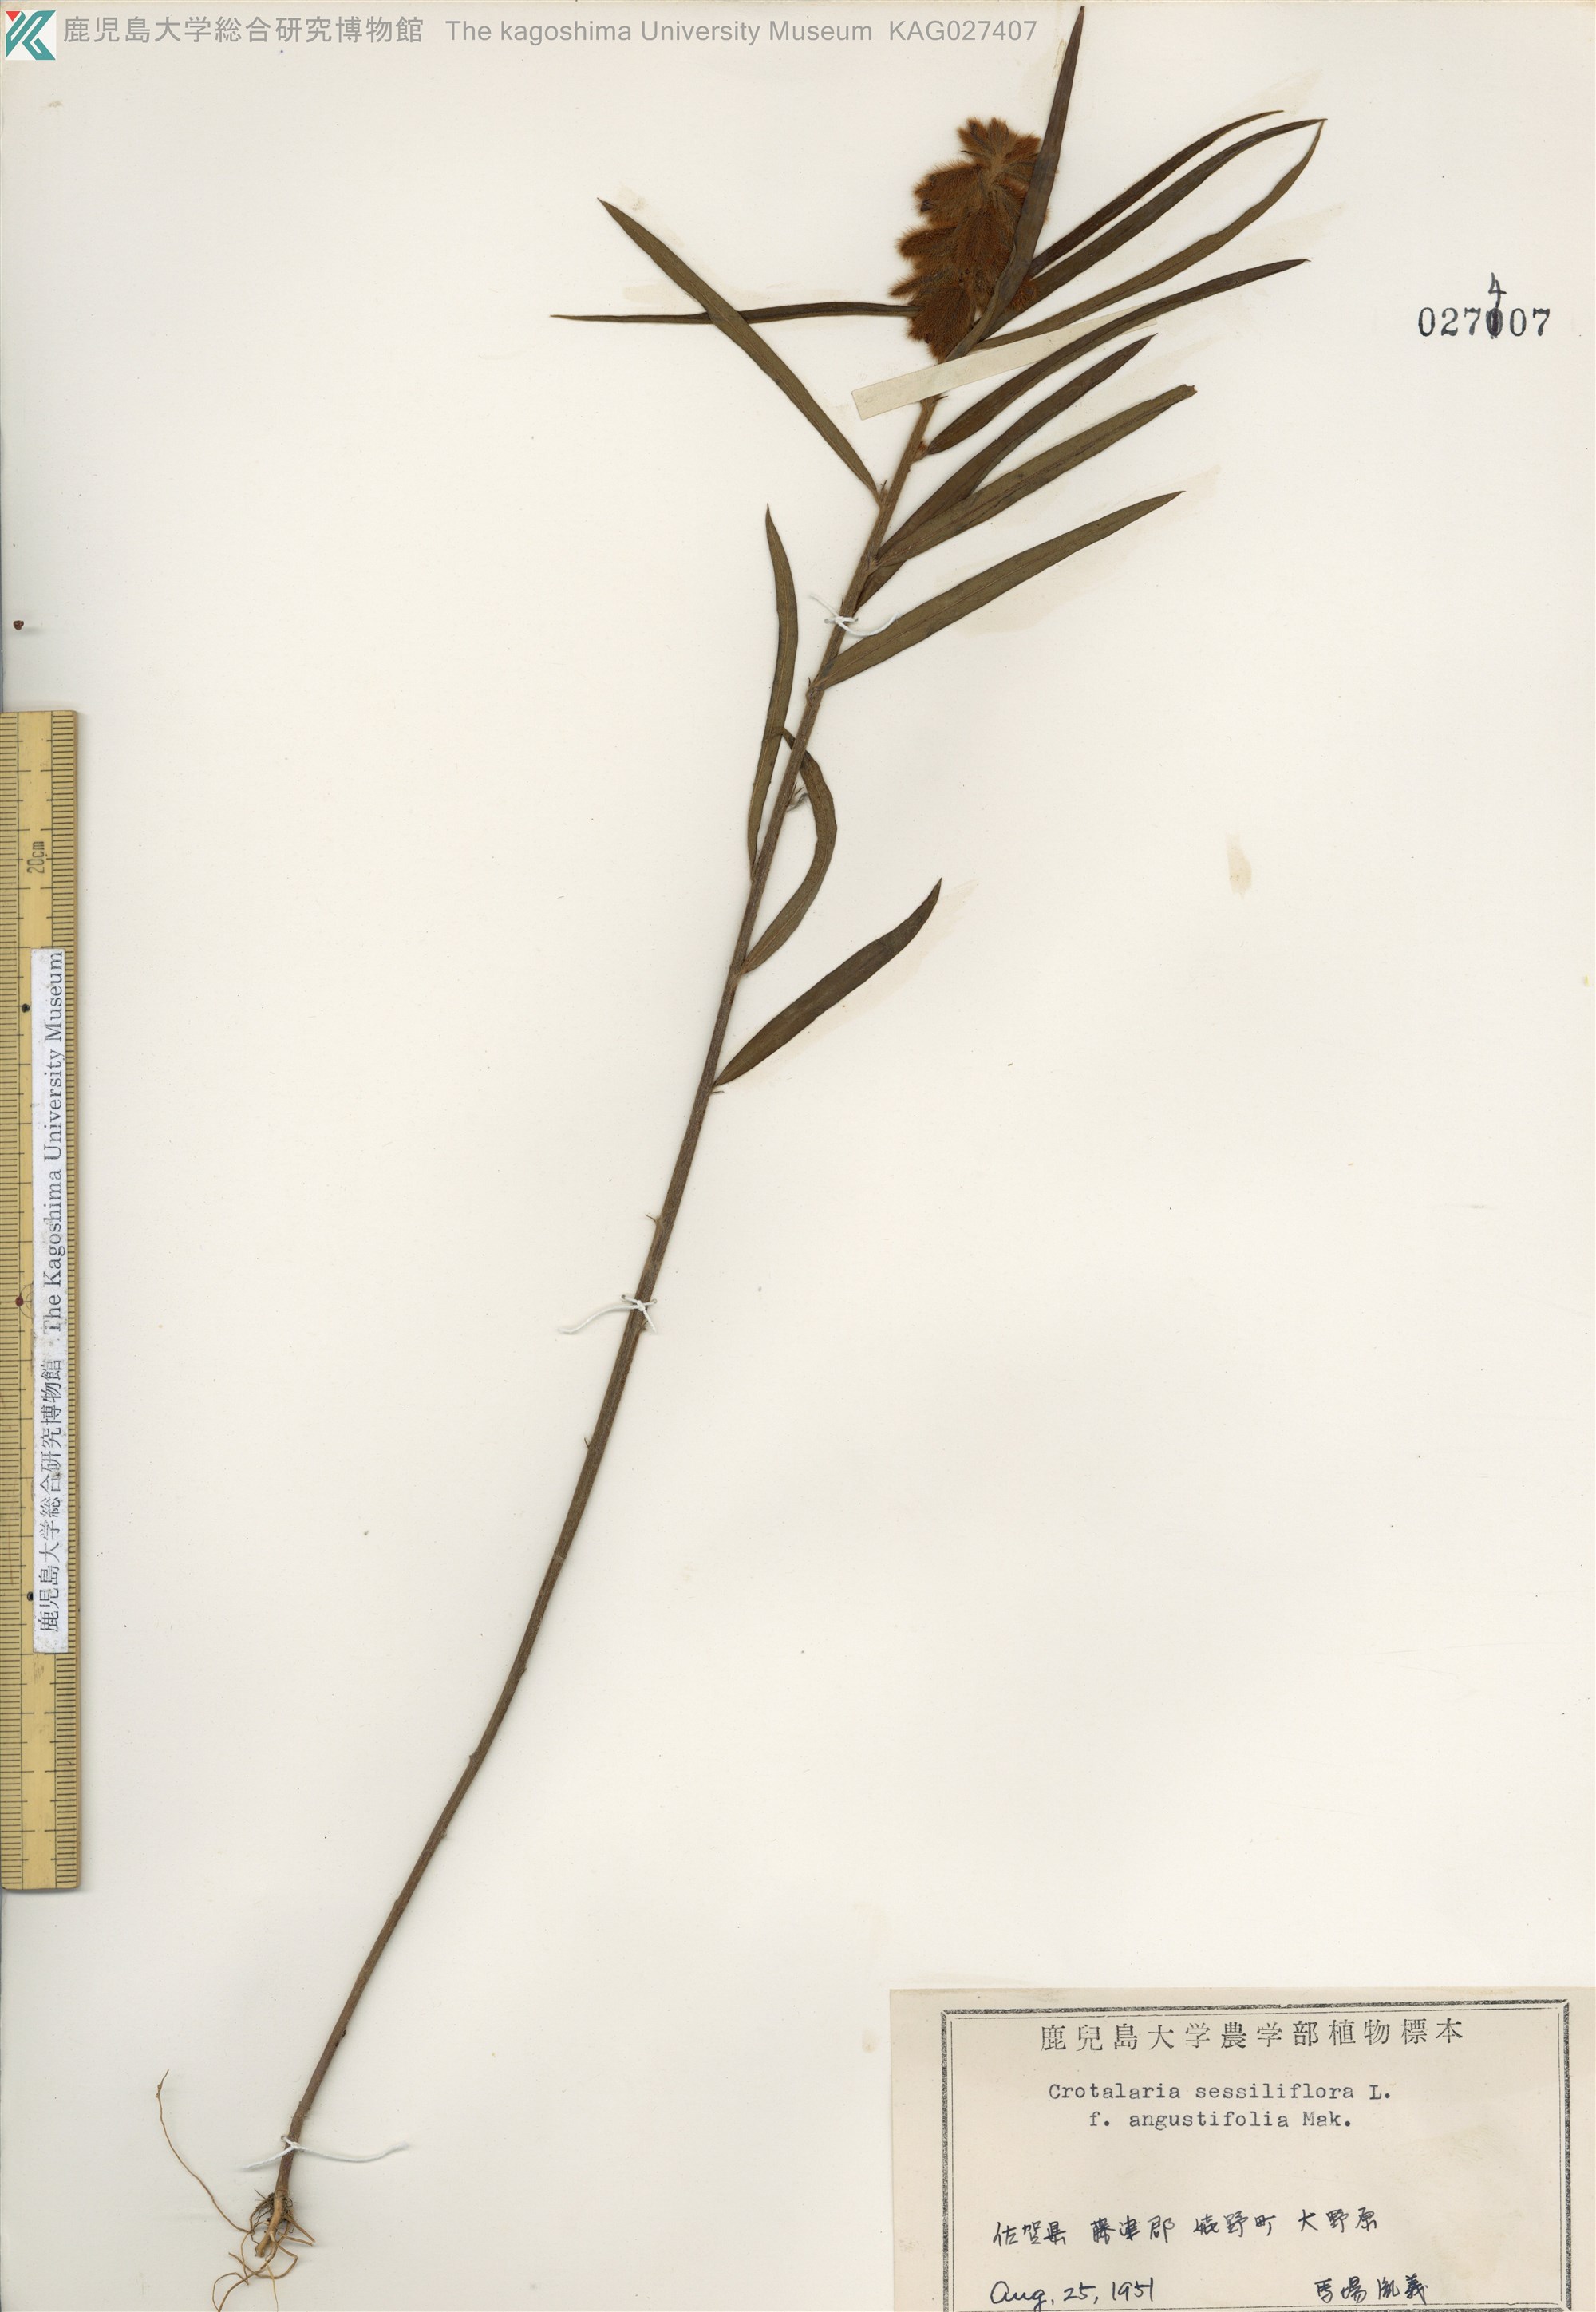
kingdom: Plantae
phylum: Tracheophyta
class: Magnoliopsida
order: Fabales
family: Fabaceae
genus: Crotalaria
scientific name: Crotalaria sessiliflora
